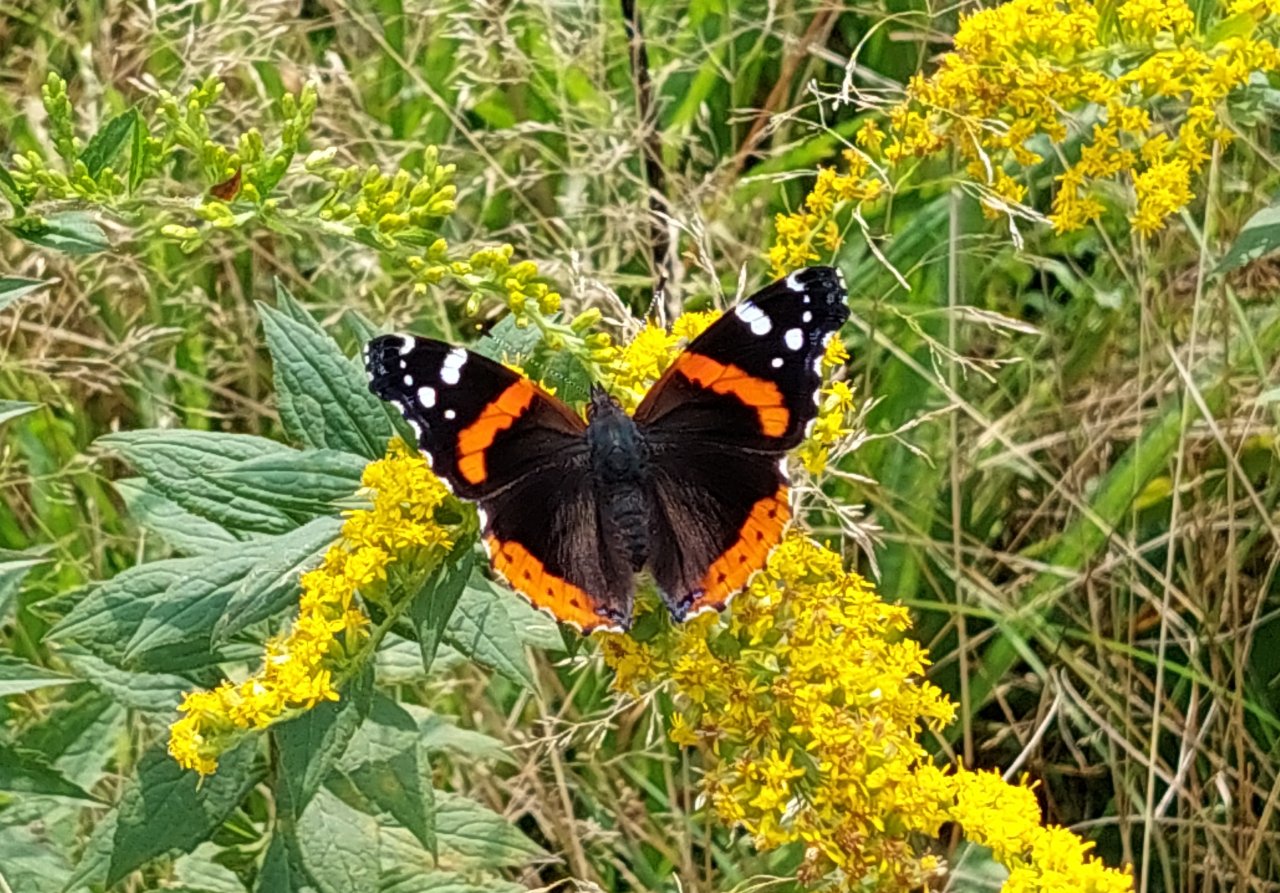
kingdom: Animalia
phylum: Arthropoda
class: Insecta
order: Lepidoptera
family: Nymphalidae
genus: Vanessa
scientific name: Vanessa atalanta
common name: Red Admiral
